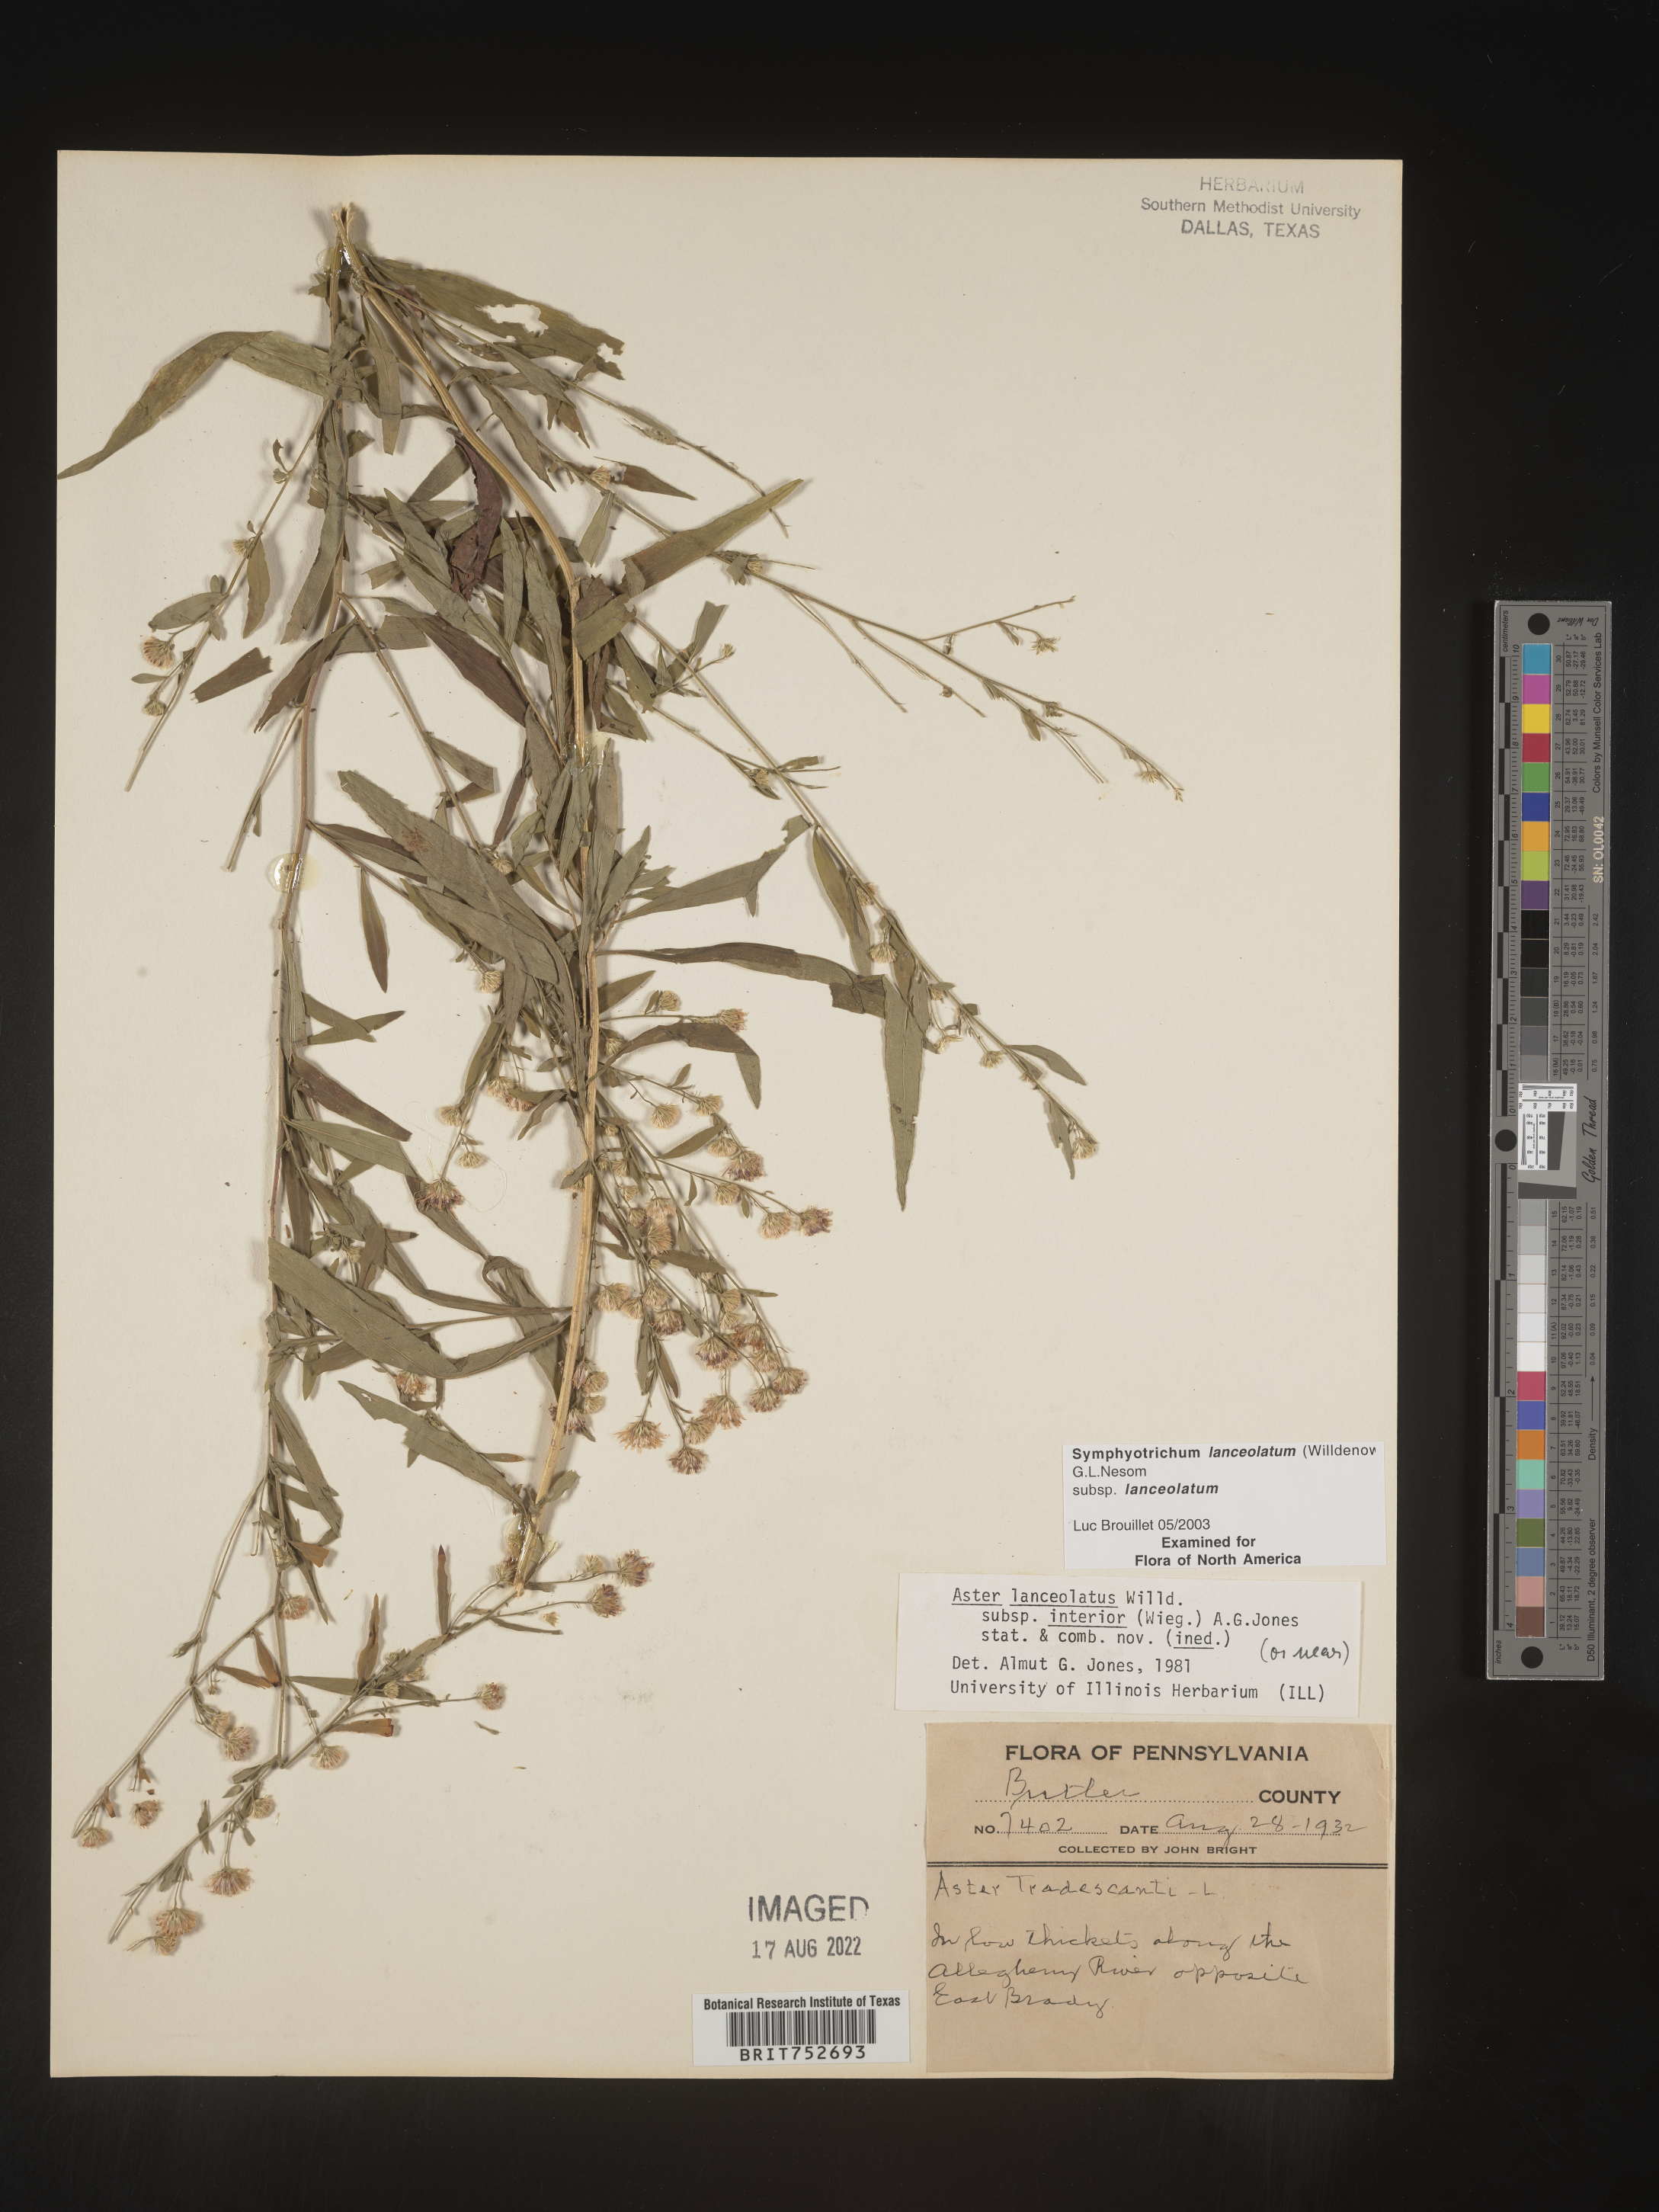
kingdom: Plantae
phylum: Tracheophyta
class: Magnoliopsida
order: Asterales
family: Asteraceae
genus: Symphyotrichum
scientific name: Symphyotrichum lanceolatum
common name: Panicled aster
